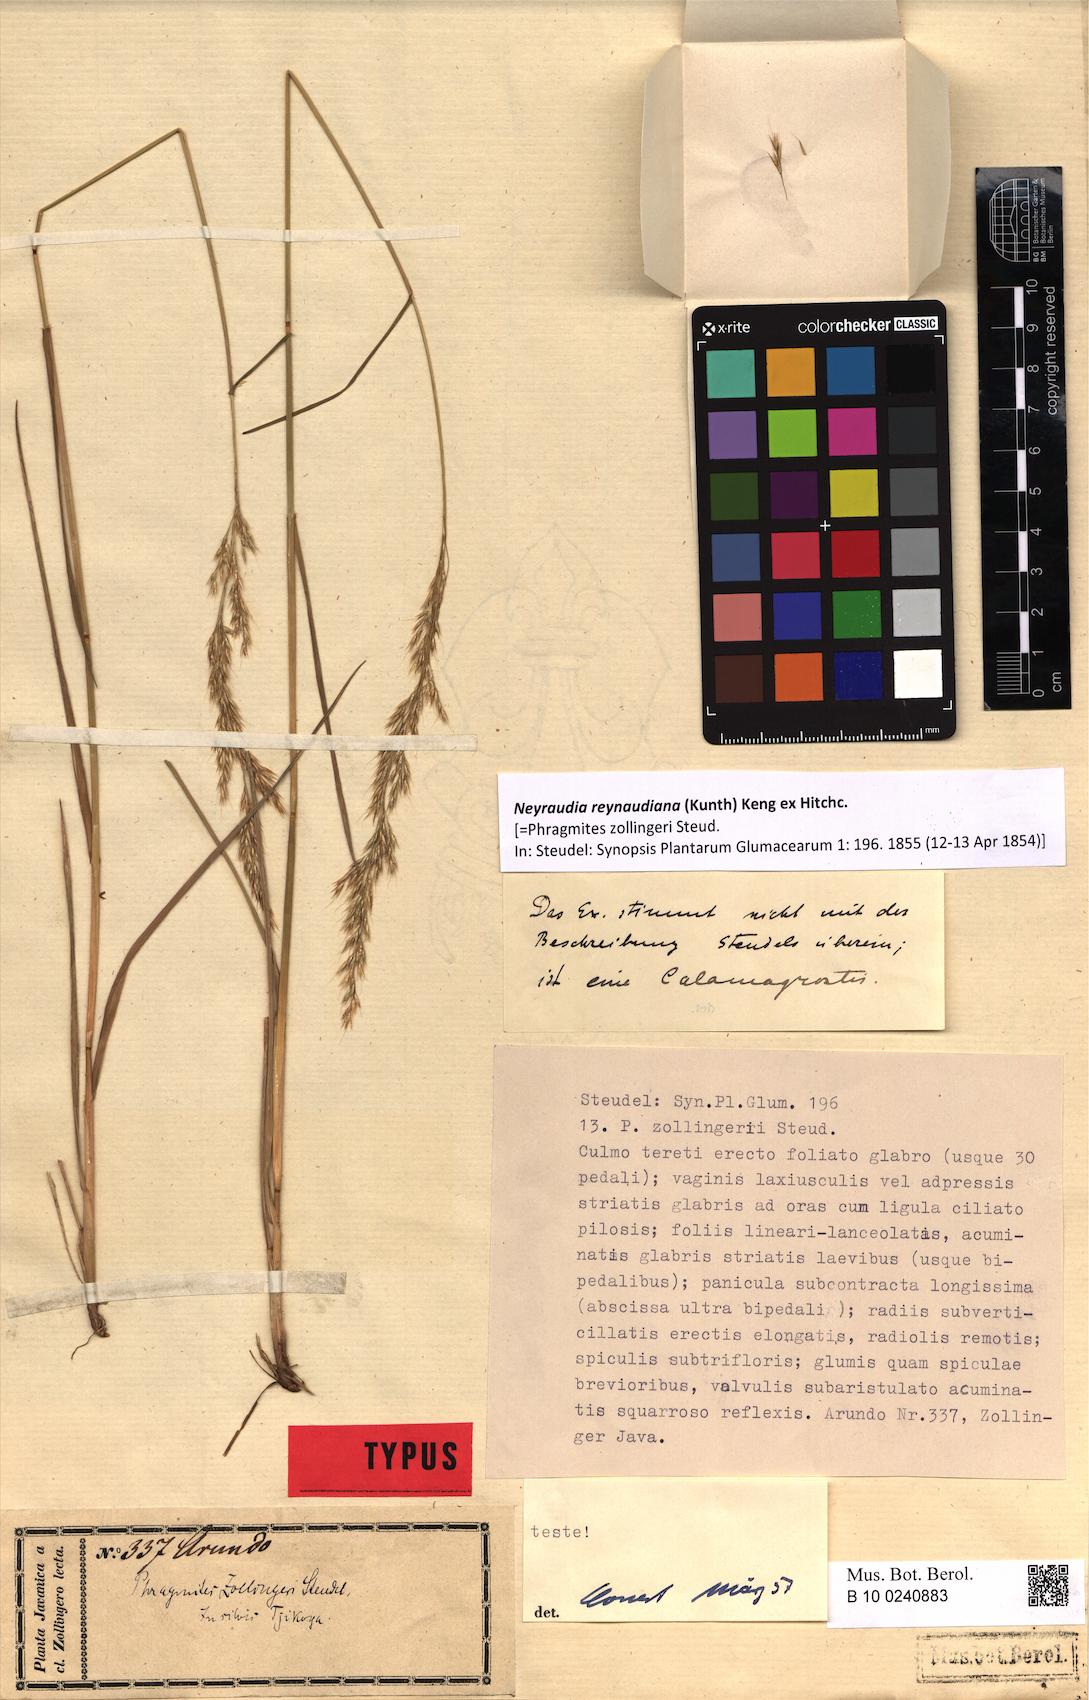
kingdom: Plantae
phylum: Tracheophyta
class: Liliopsida
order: Poales
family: Poaceae
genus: Neyraudia
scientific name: Neyraudia reynaudiana
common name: Silkreed
